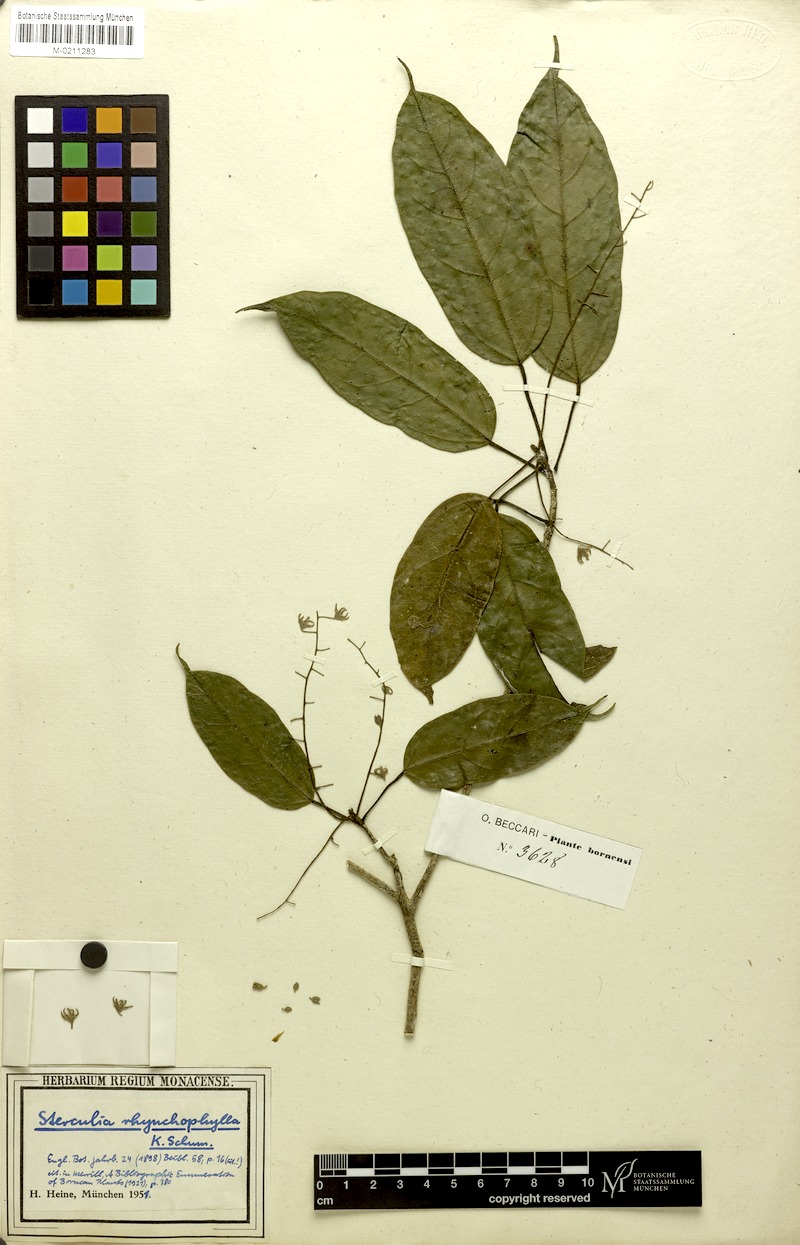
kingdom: Plantae
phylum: Tracheophyta
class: Magnoliopsida
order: Malvales
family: Malvaceae
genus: Sterculia
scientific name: Sterculia rhynchophylla
